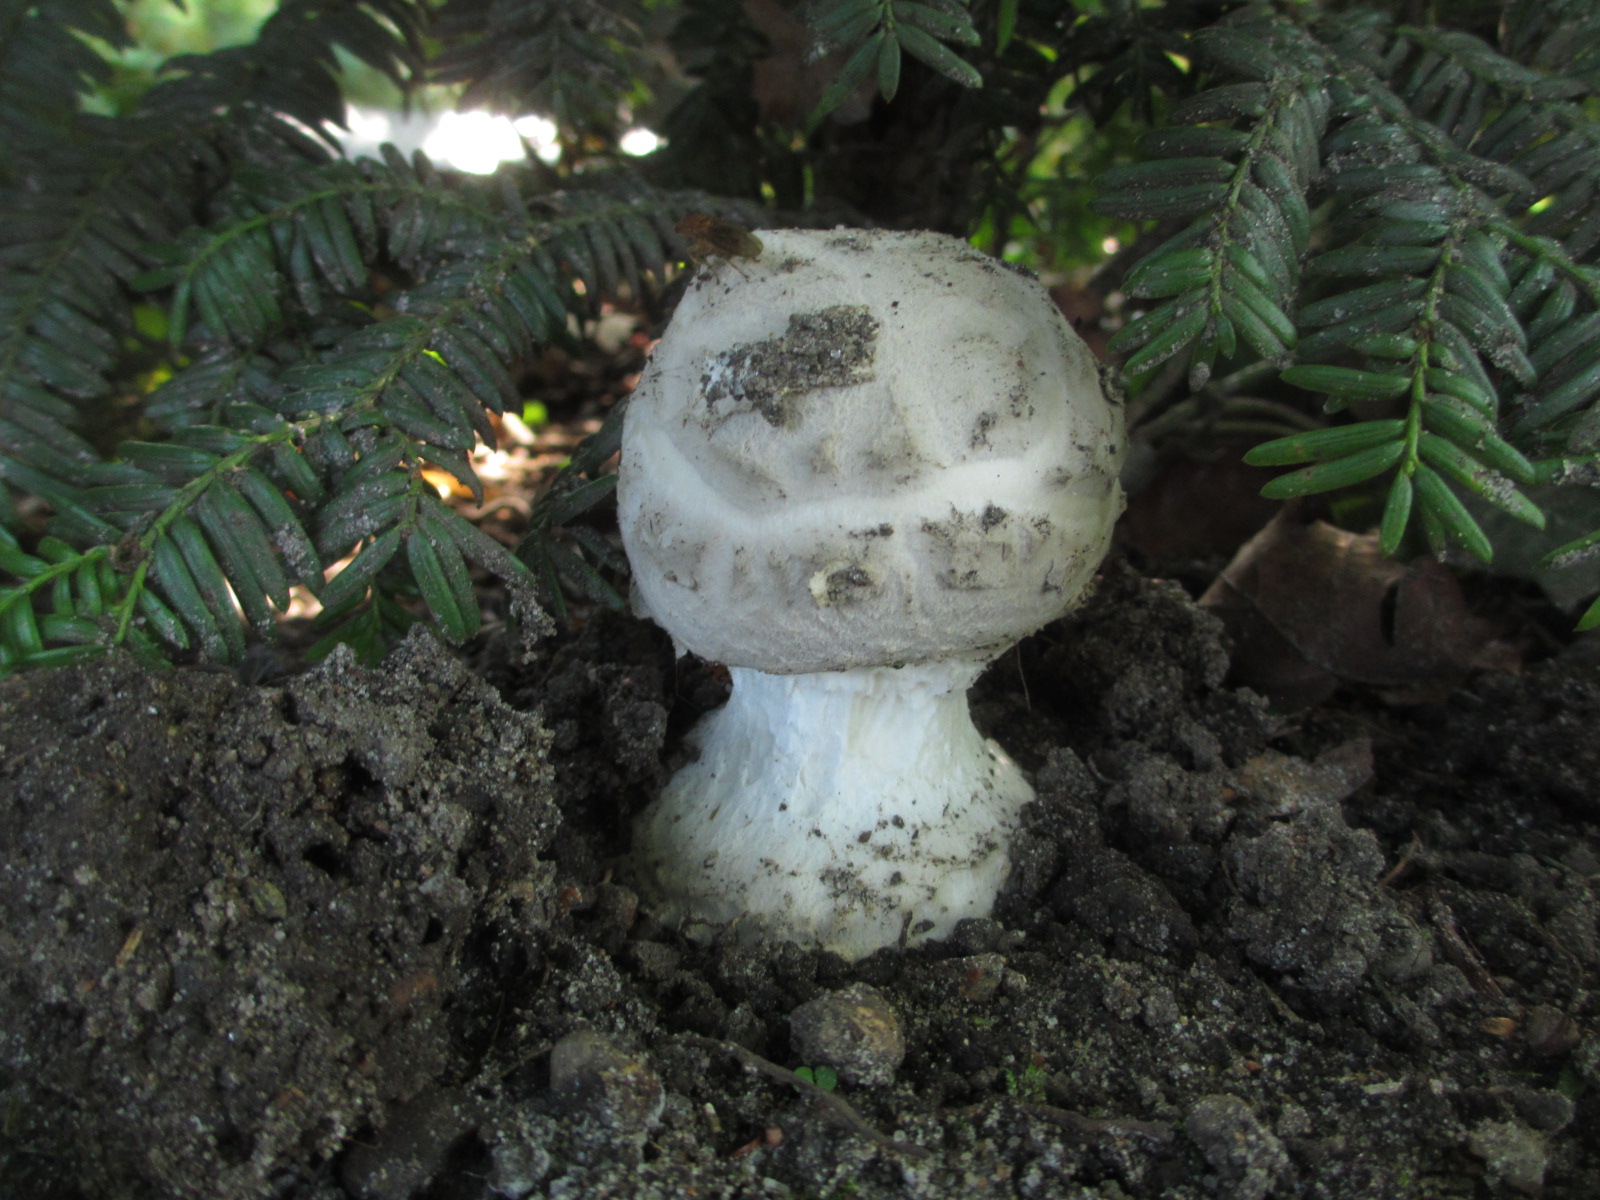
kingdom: Fungi
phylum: Basidiomycota
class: Agaricomycetes
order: Agaricales
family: Amanitaceae
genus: Amanita
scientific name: Amanita
